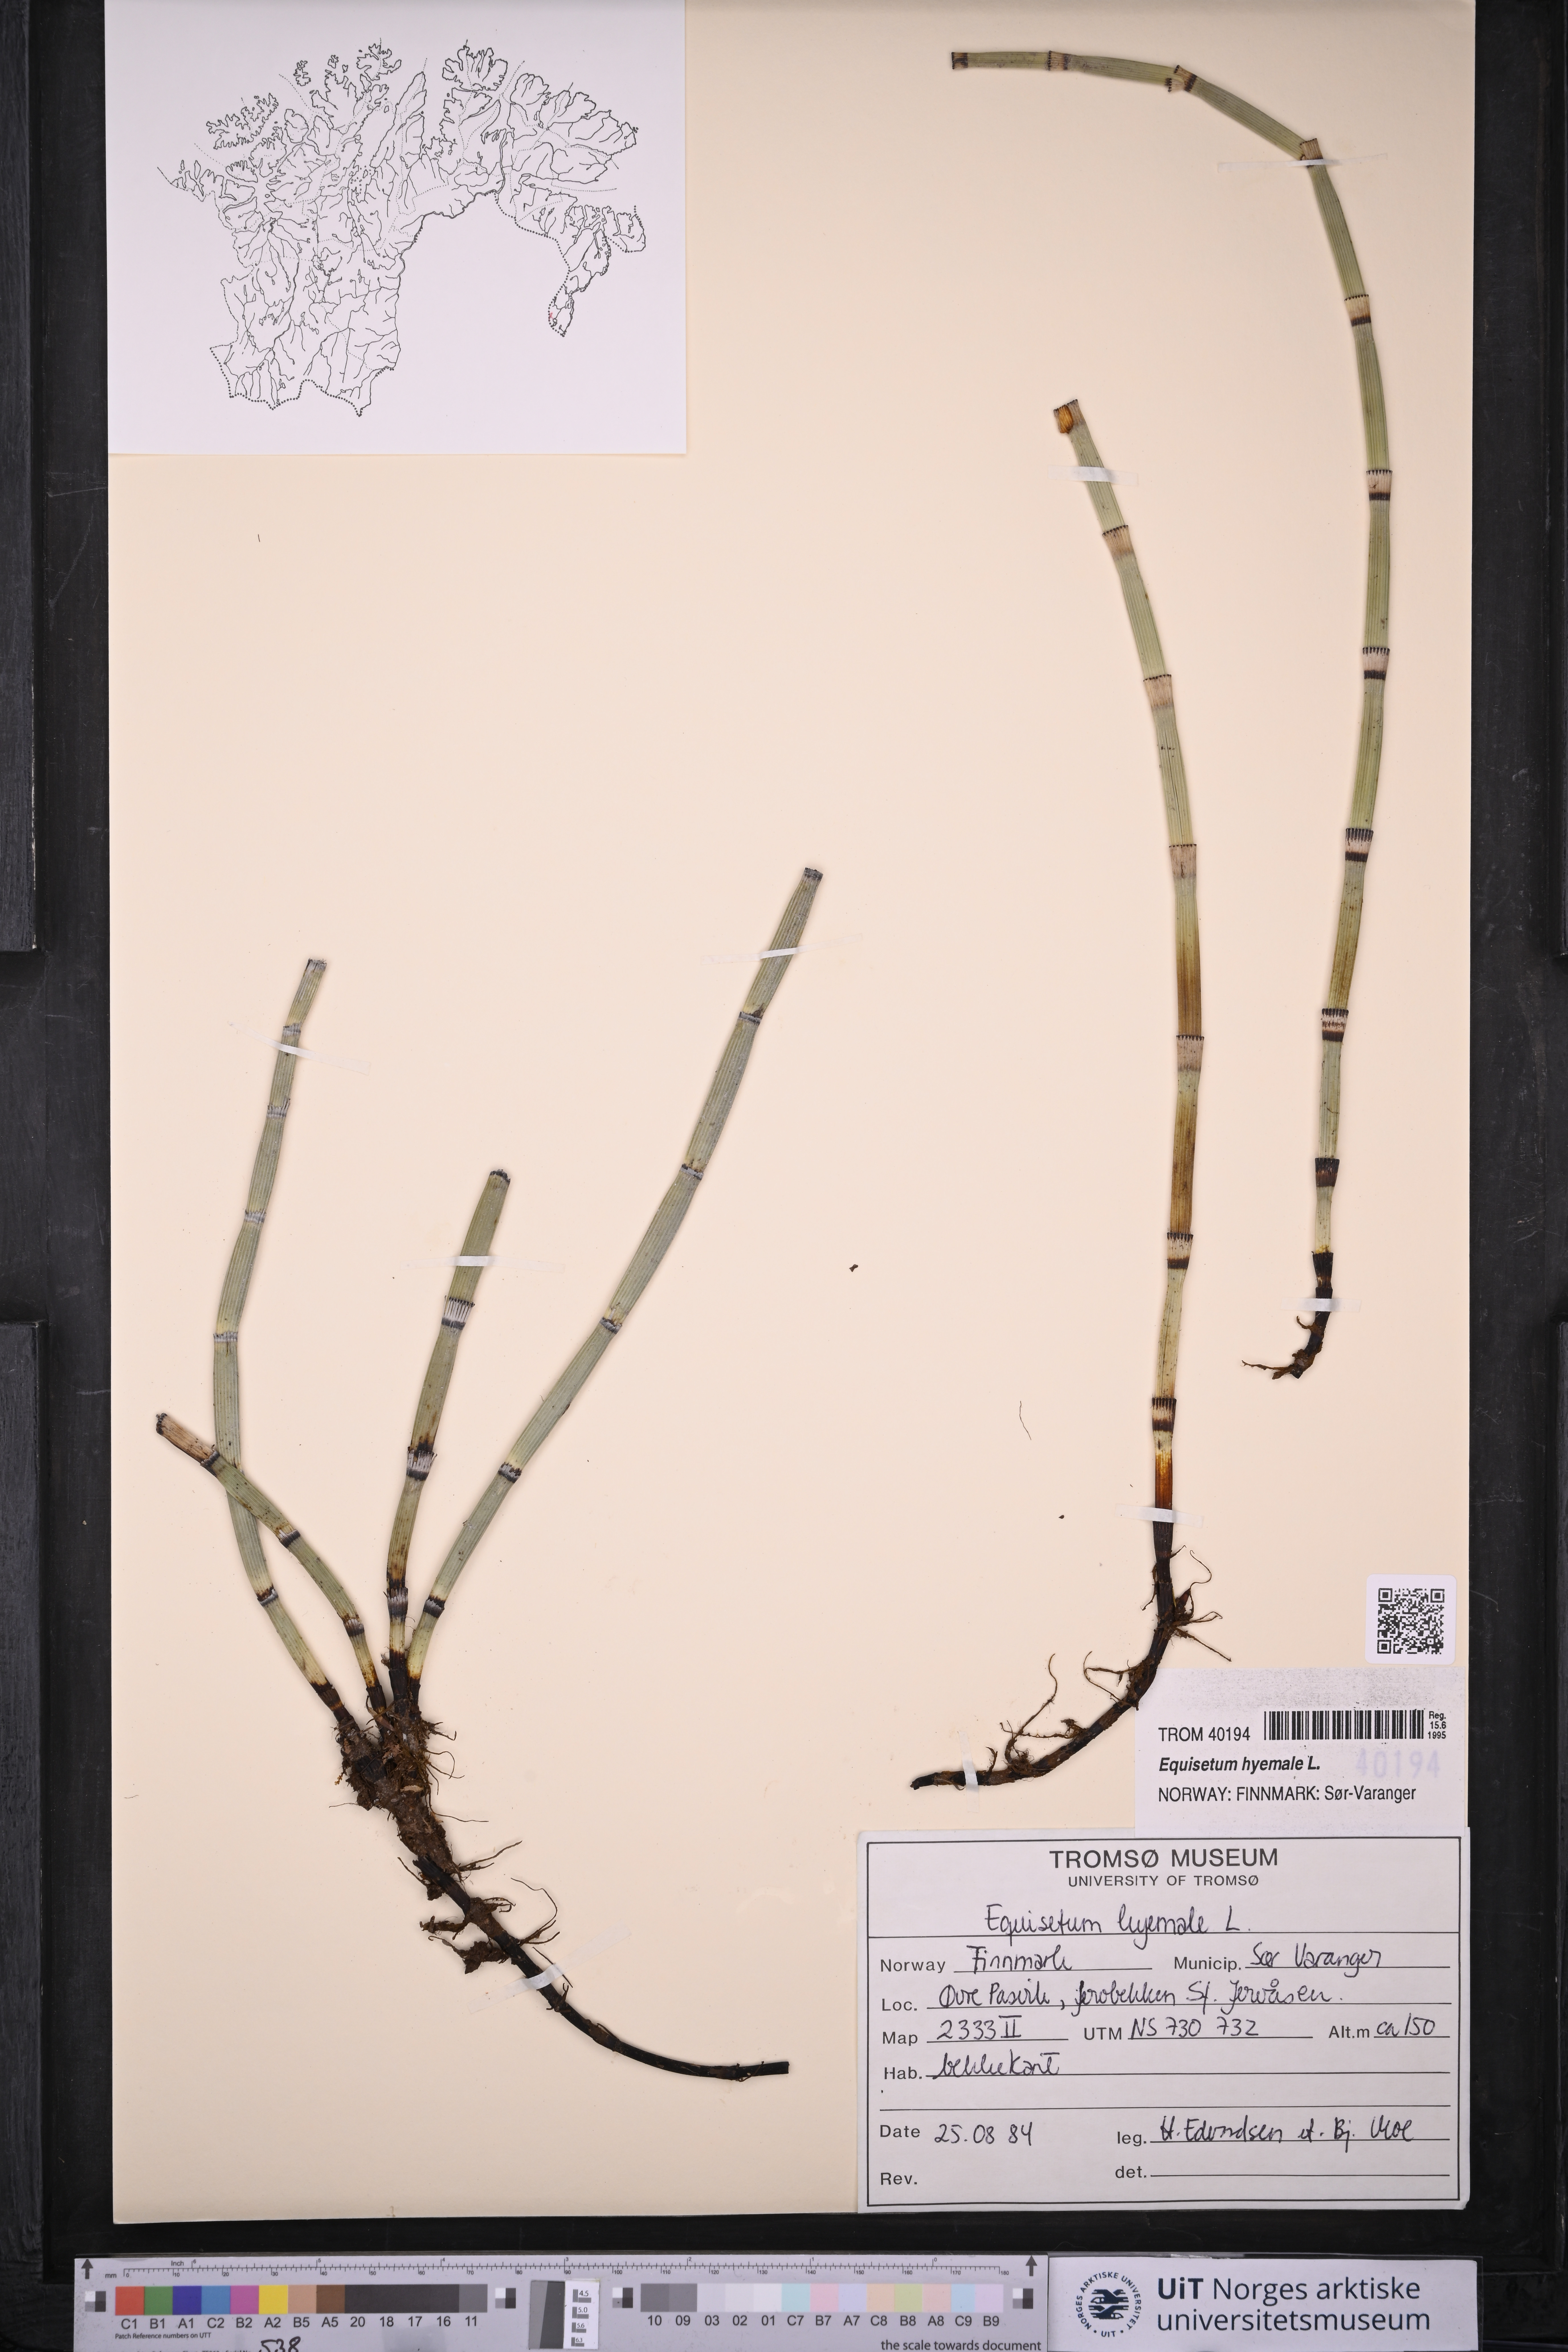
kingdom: Plantae
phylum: Tracheophyta
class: Polypodiopsida
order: Equisetales
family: Equisetaceae
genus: Equisetum
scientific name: Equisetum hyemale
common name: Rough horsetail
